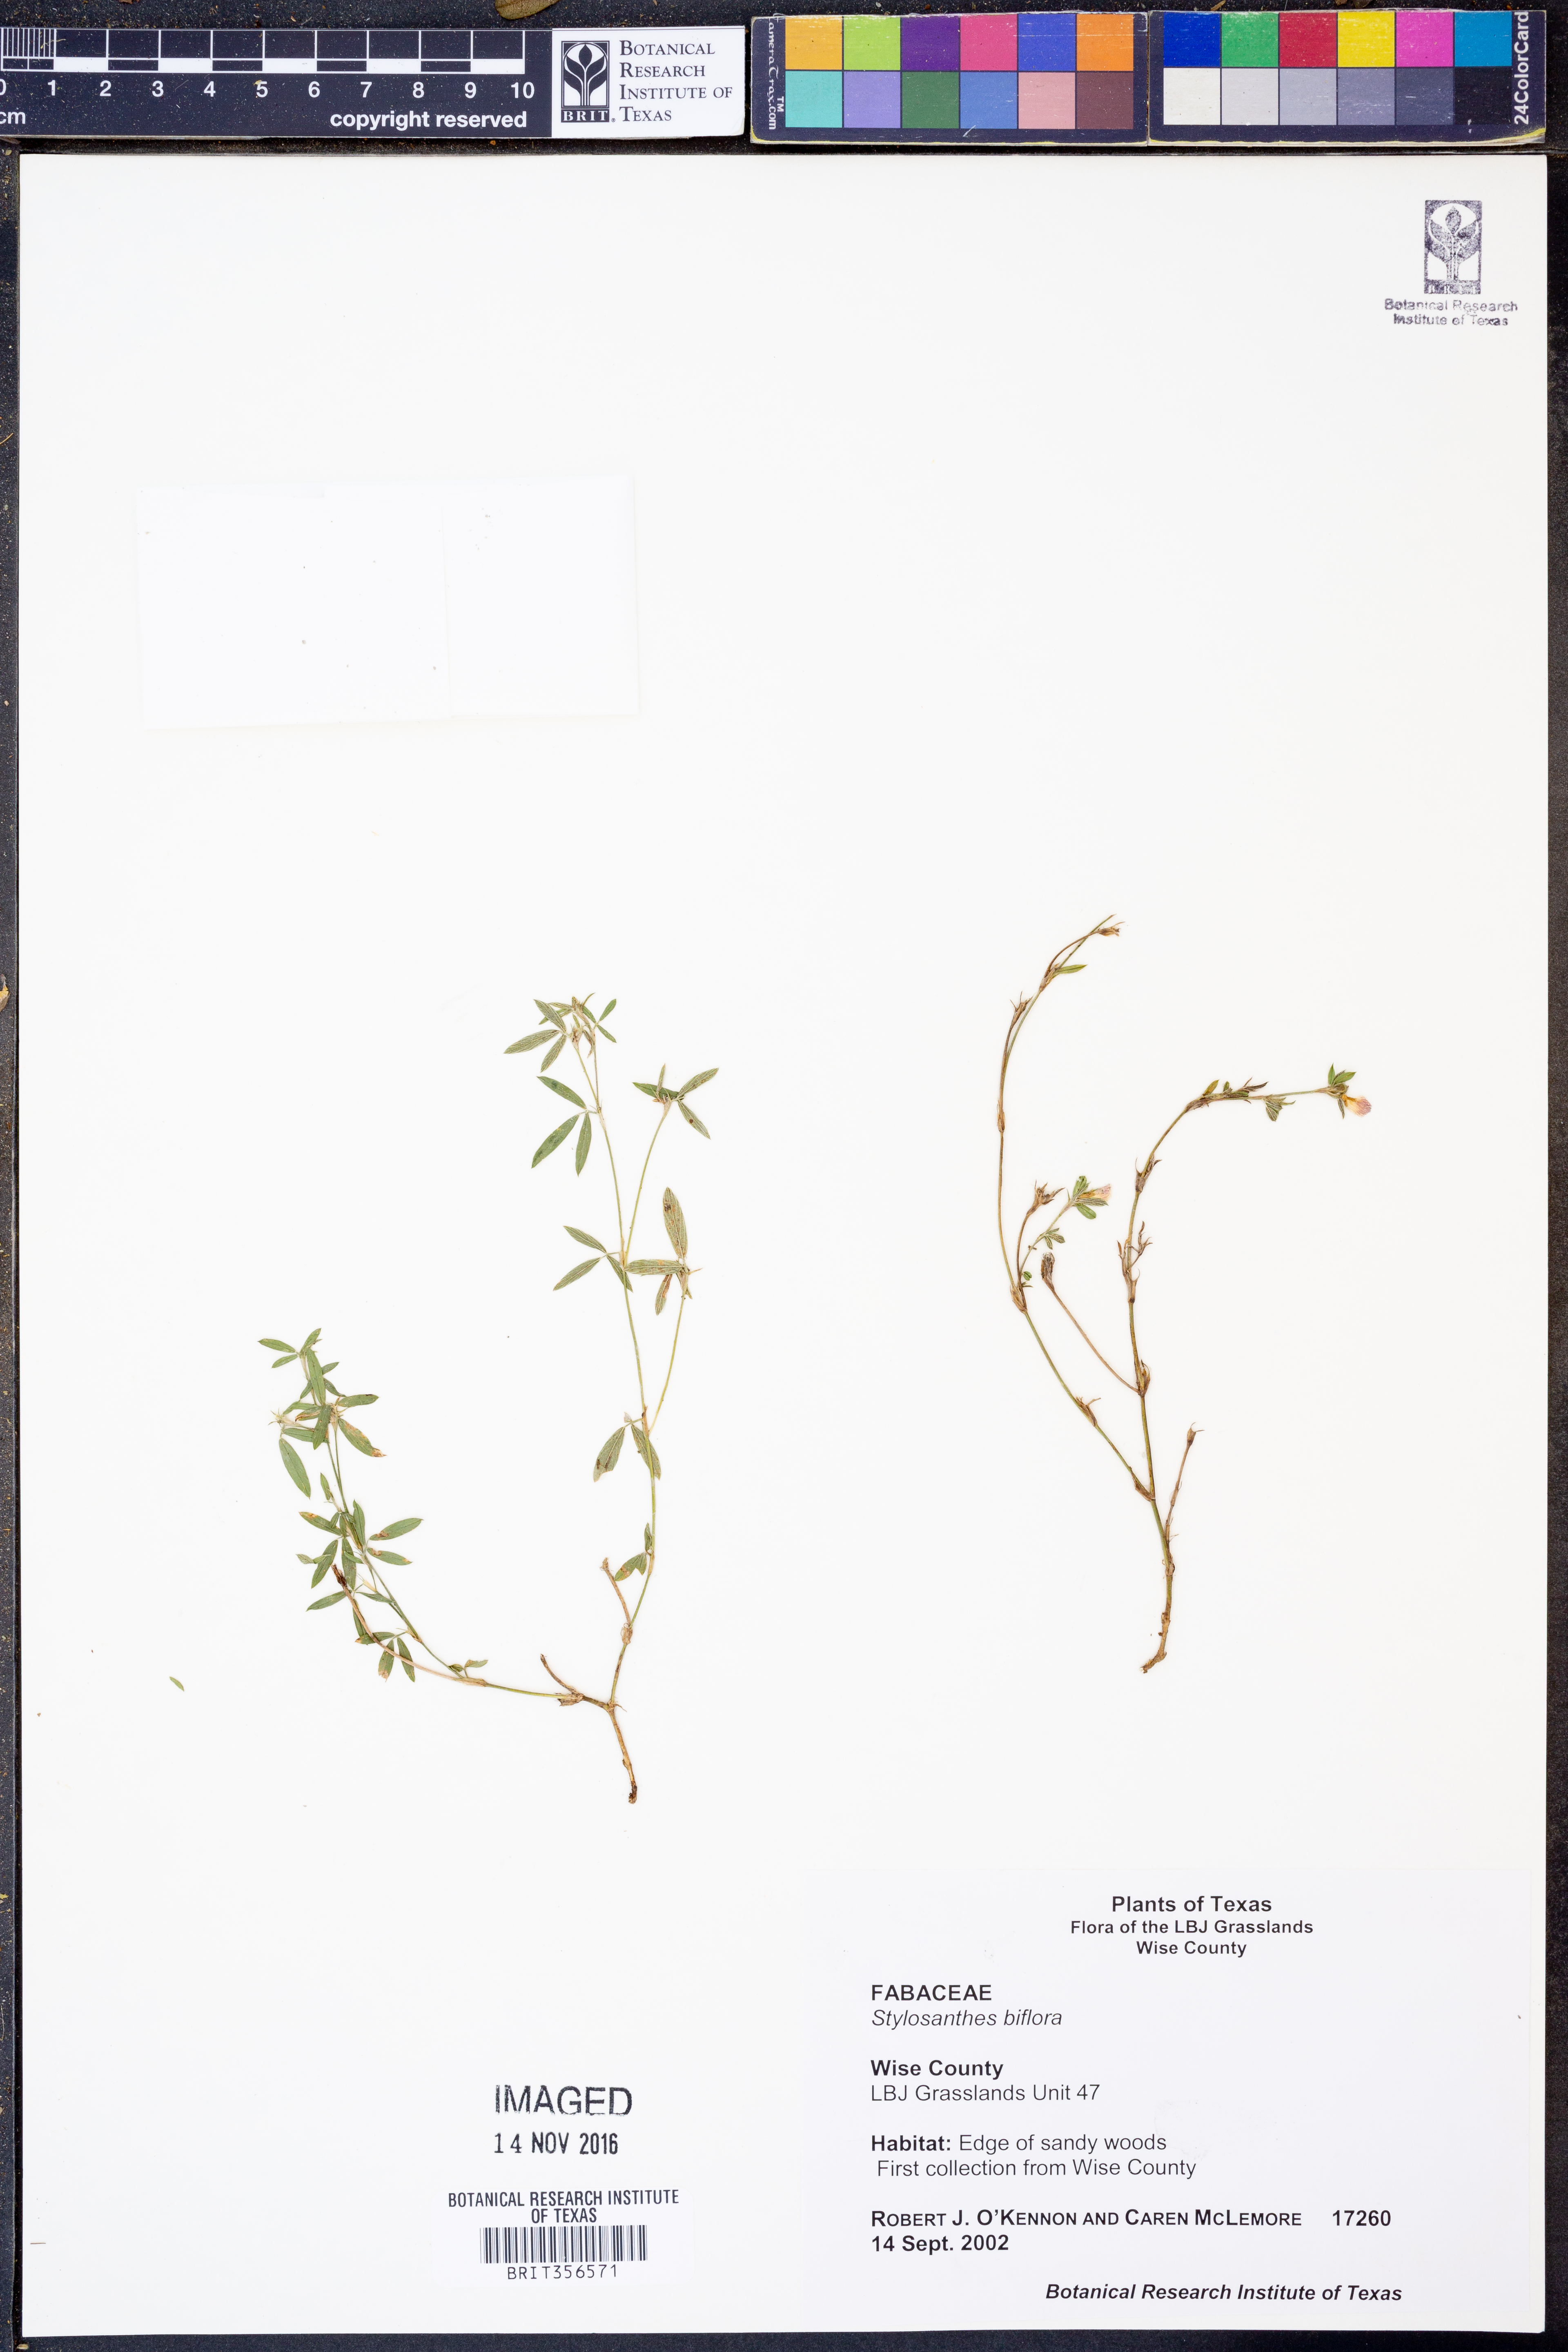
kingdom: Plantae
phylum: Tracheophyta
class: Magnoliopsida
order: Fabales
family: Fabaceae
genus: Stylosanthes
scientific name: Stylosanthes biflora
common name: Two-flower pencil-flower
